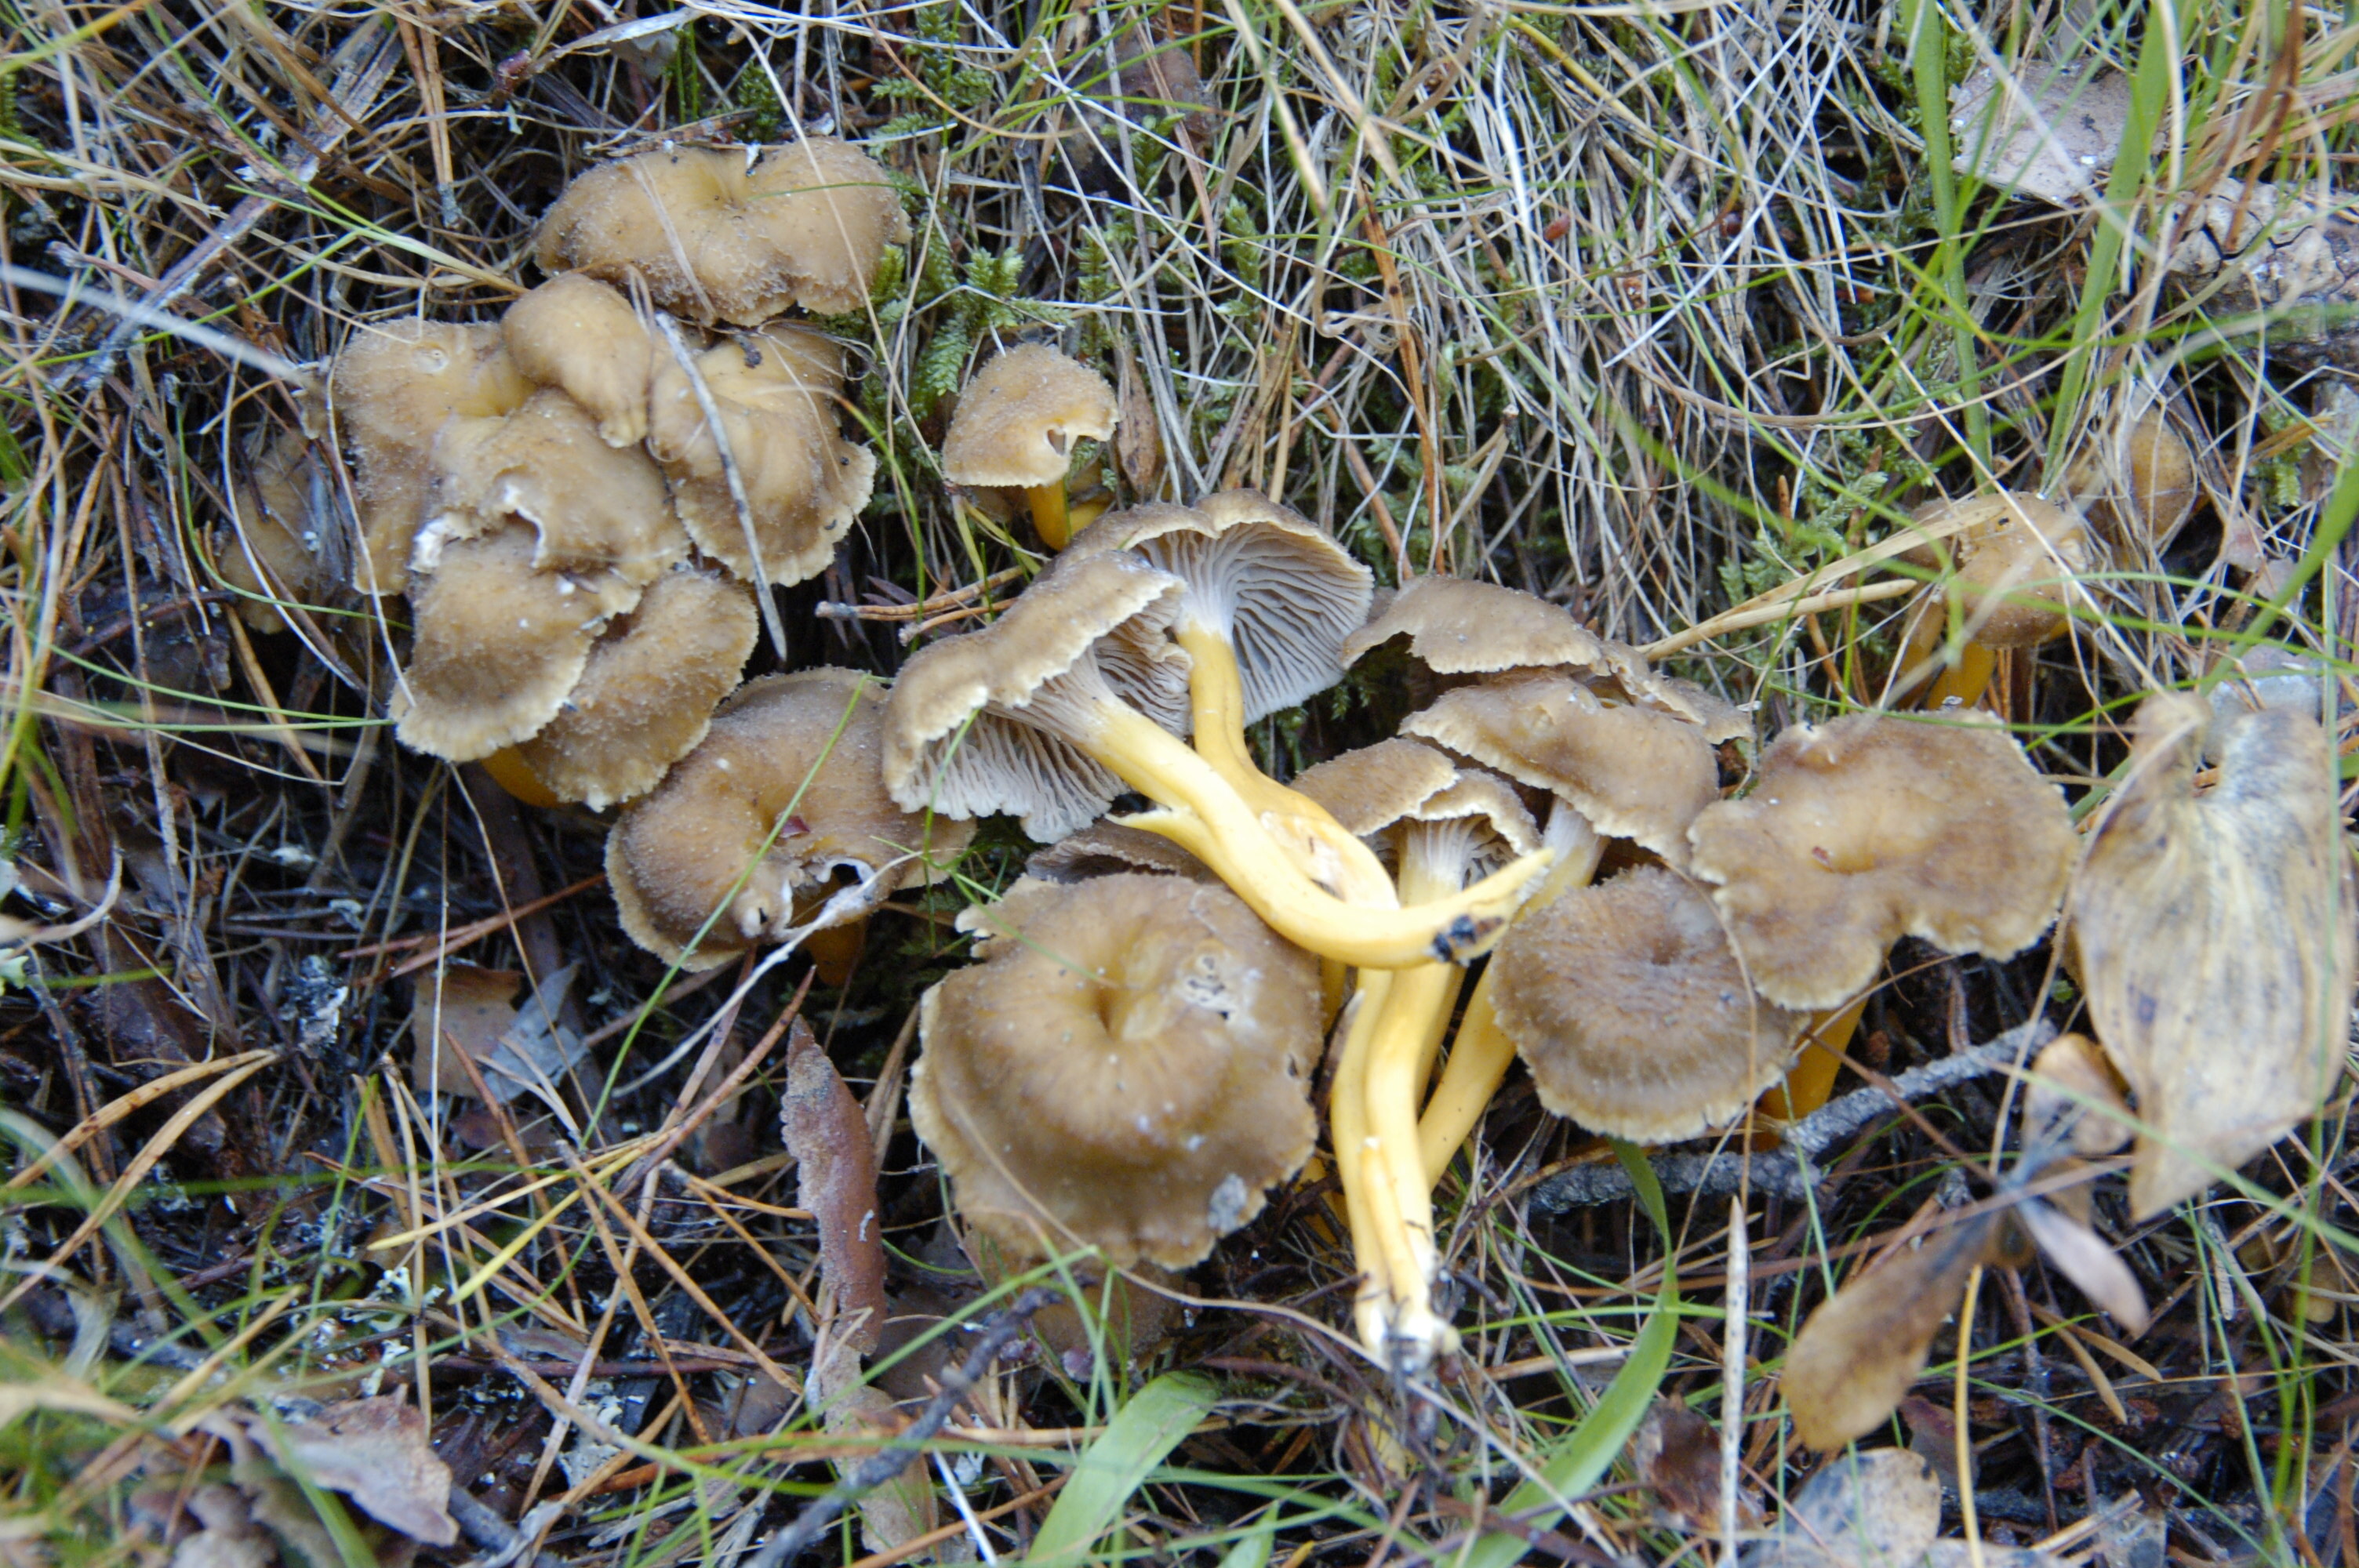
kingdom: Fungi
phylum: Basidiomycota
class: Agaricomycetes
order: Cantharellales
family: Hydnaceae
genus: Craterellus
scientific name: Craterellus tubaeformis
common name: Yellowfoot
